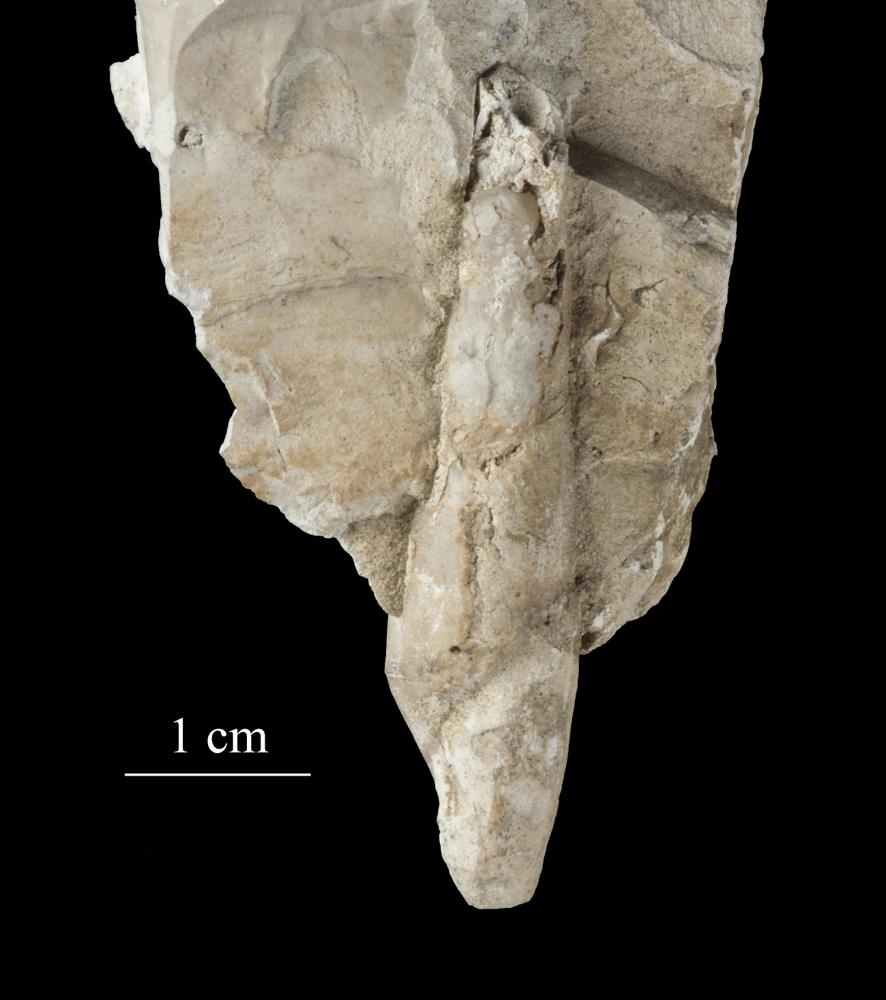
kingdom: Animalia
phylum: Mollusca
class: Gastropoda
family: Subulitidae
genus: Subulites
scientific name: Subulites subula
